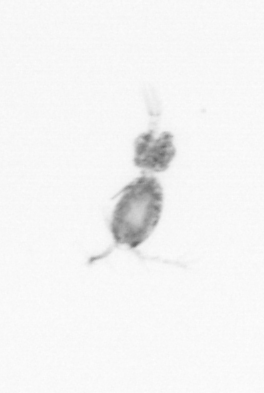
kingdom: Animalia
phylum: Arthropoda
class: Copepoda
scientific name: Copepoda
